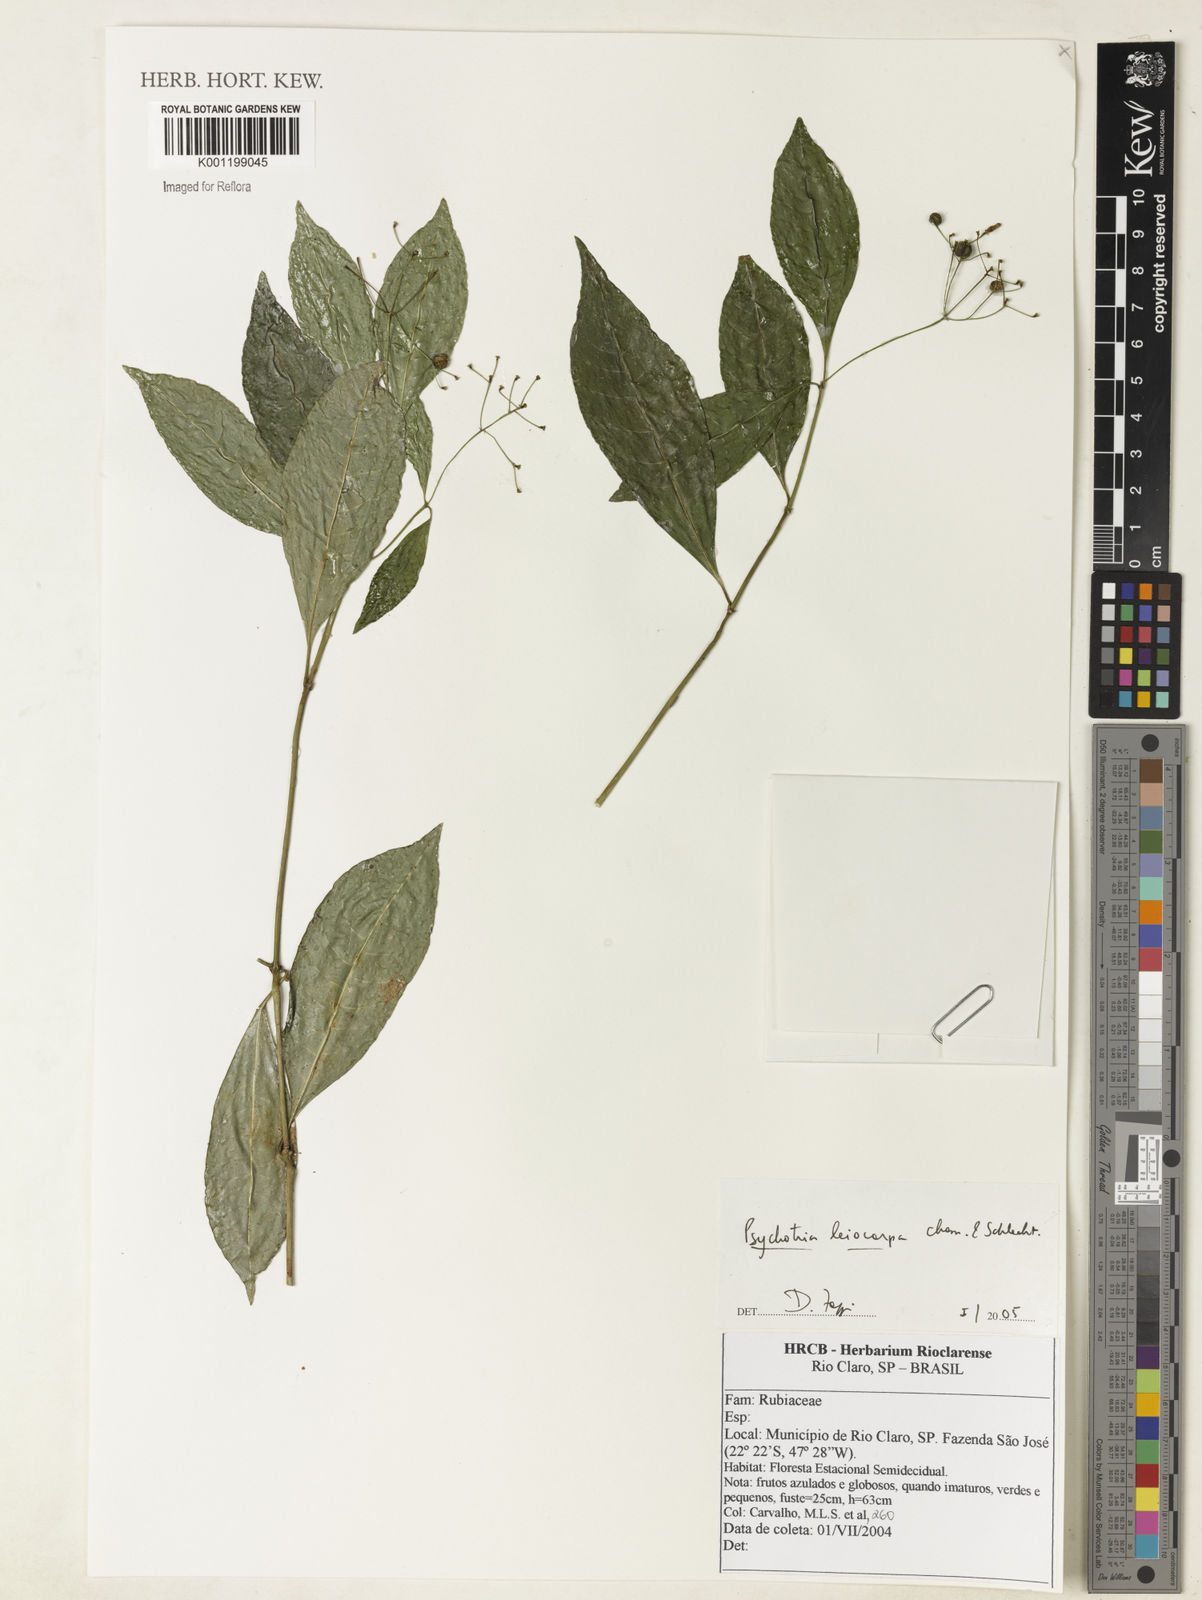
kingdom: Plantae
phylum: Tracheophyta
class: Magnoliopsida
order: Gentianales
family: Rubiaceae
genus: Psychotria
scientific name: Psychotria leiocarpa
